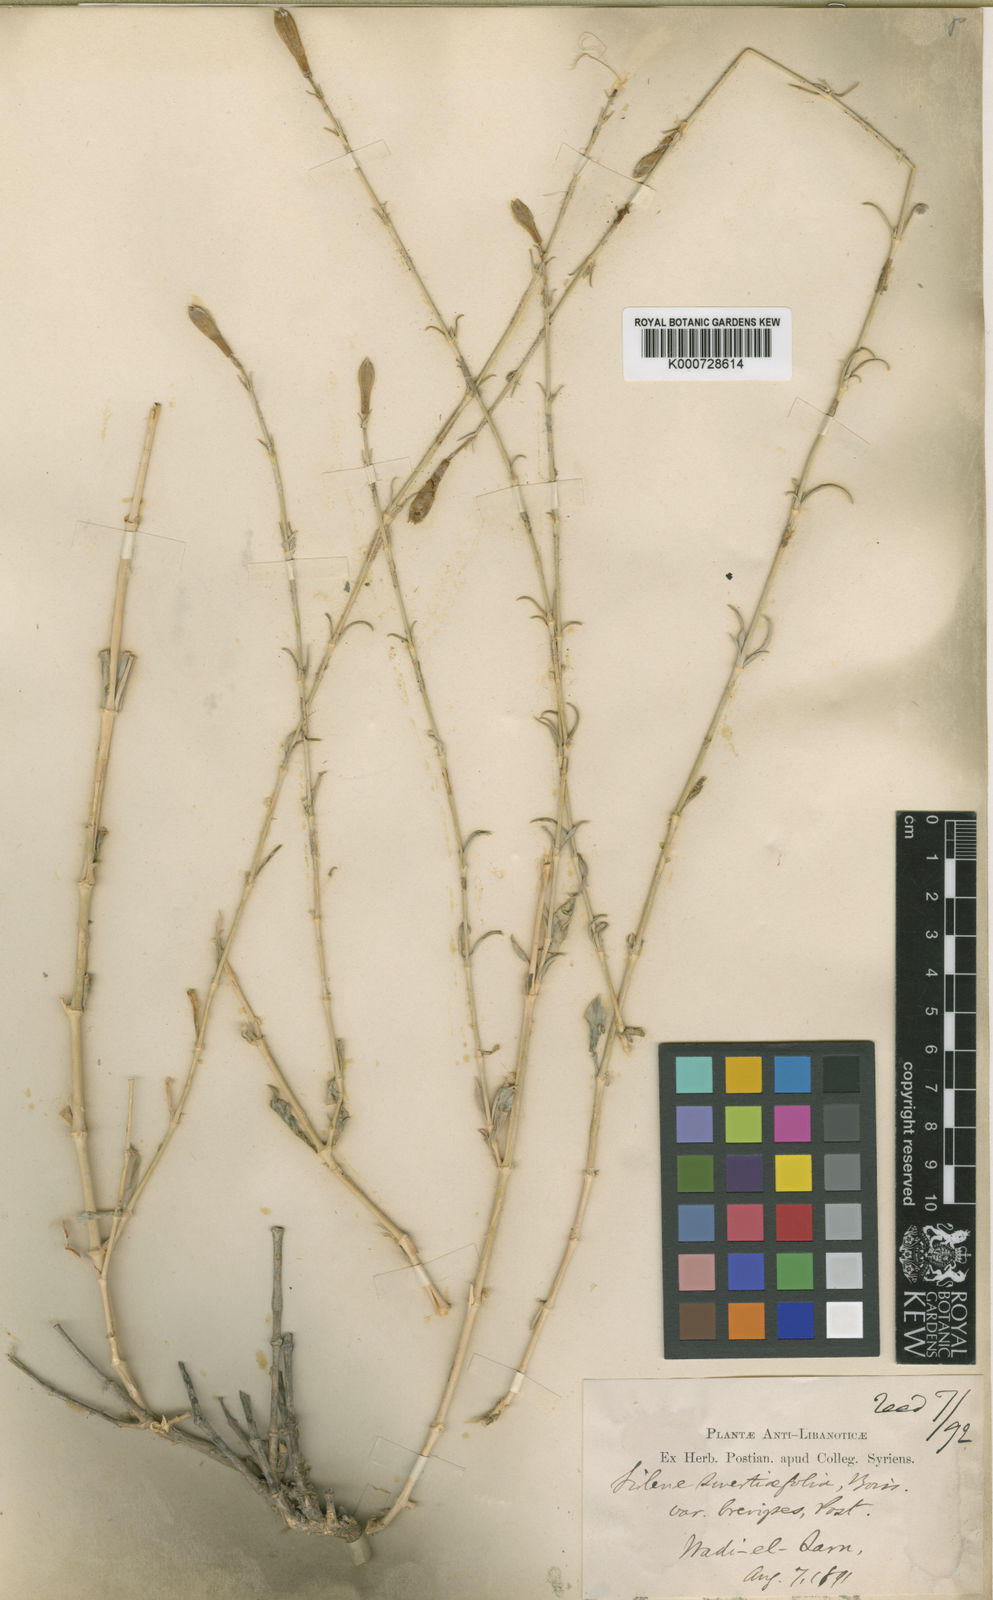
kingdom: Plantae
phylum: Tracheophyta
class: Magnoliopsida
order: Caryophyllales
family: Caryophyllaceae
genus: Silene
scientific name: Silene swertiifolia
